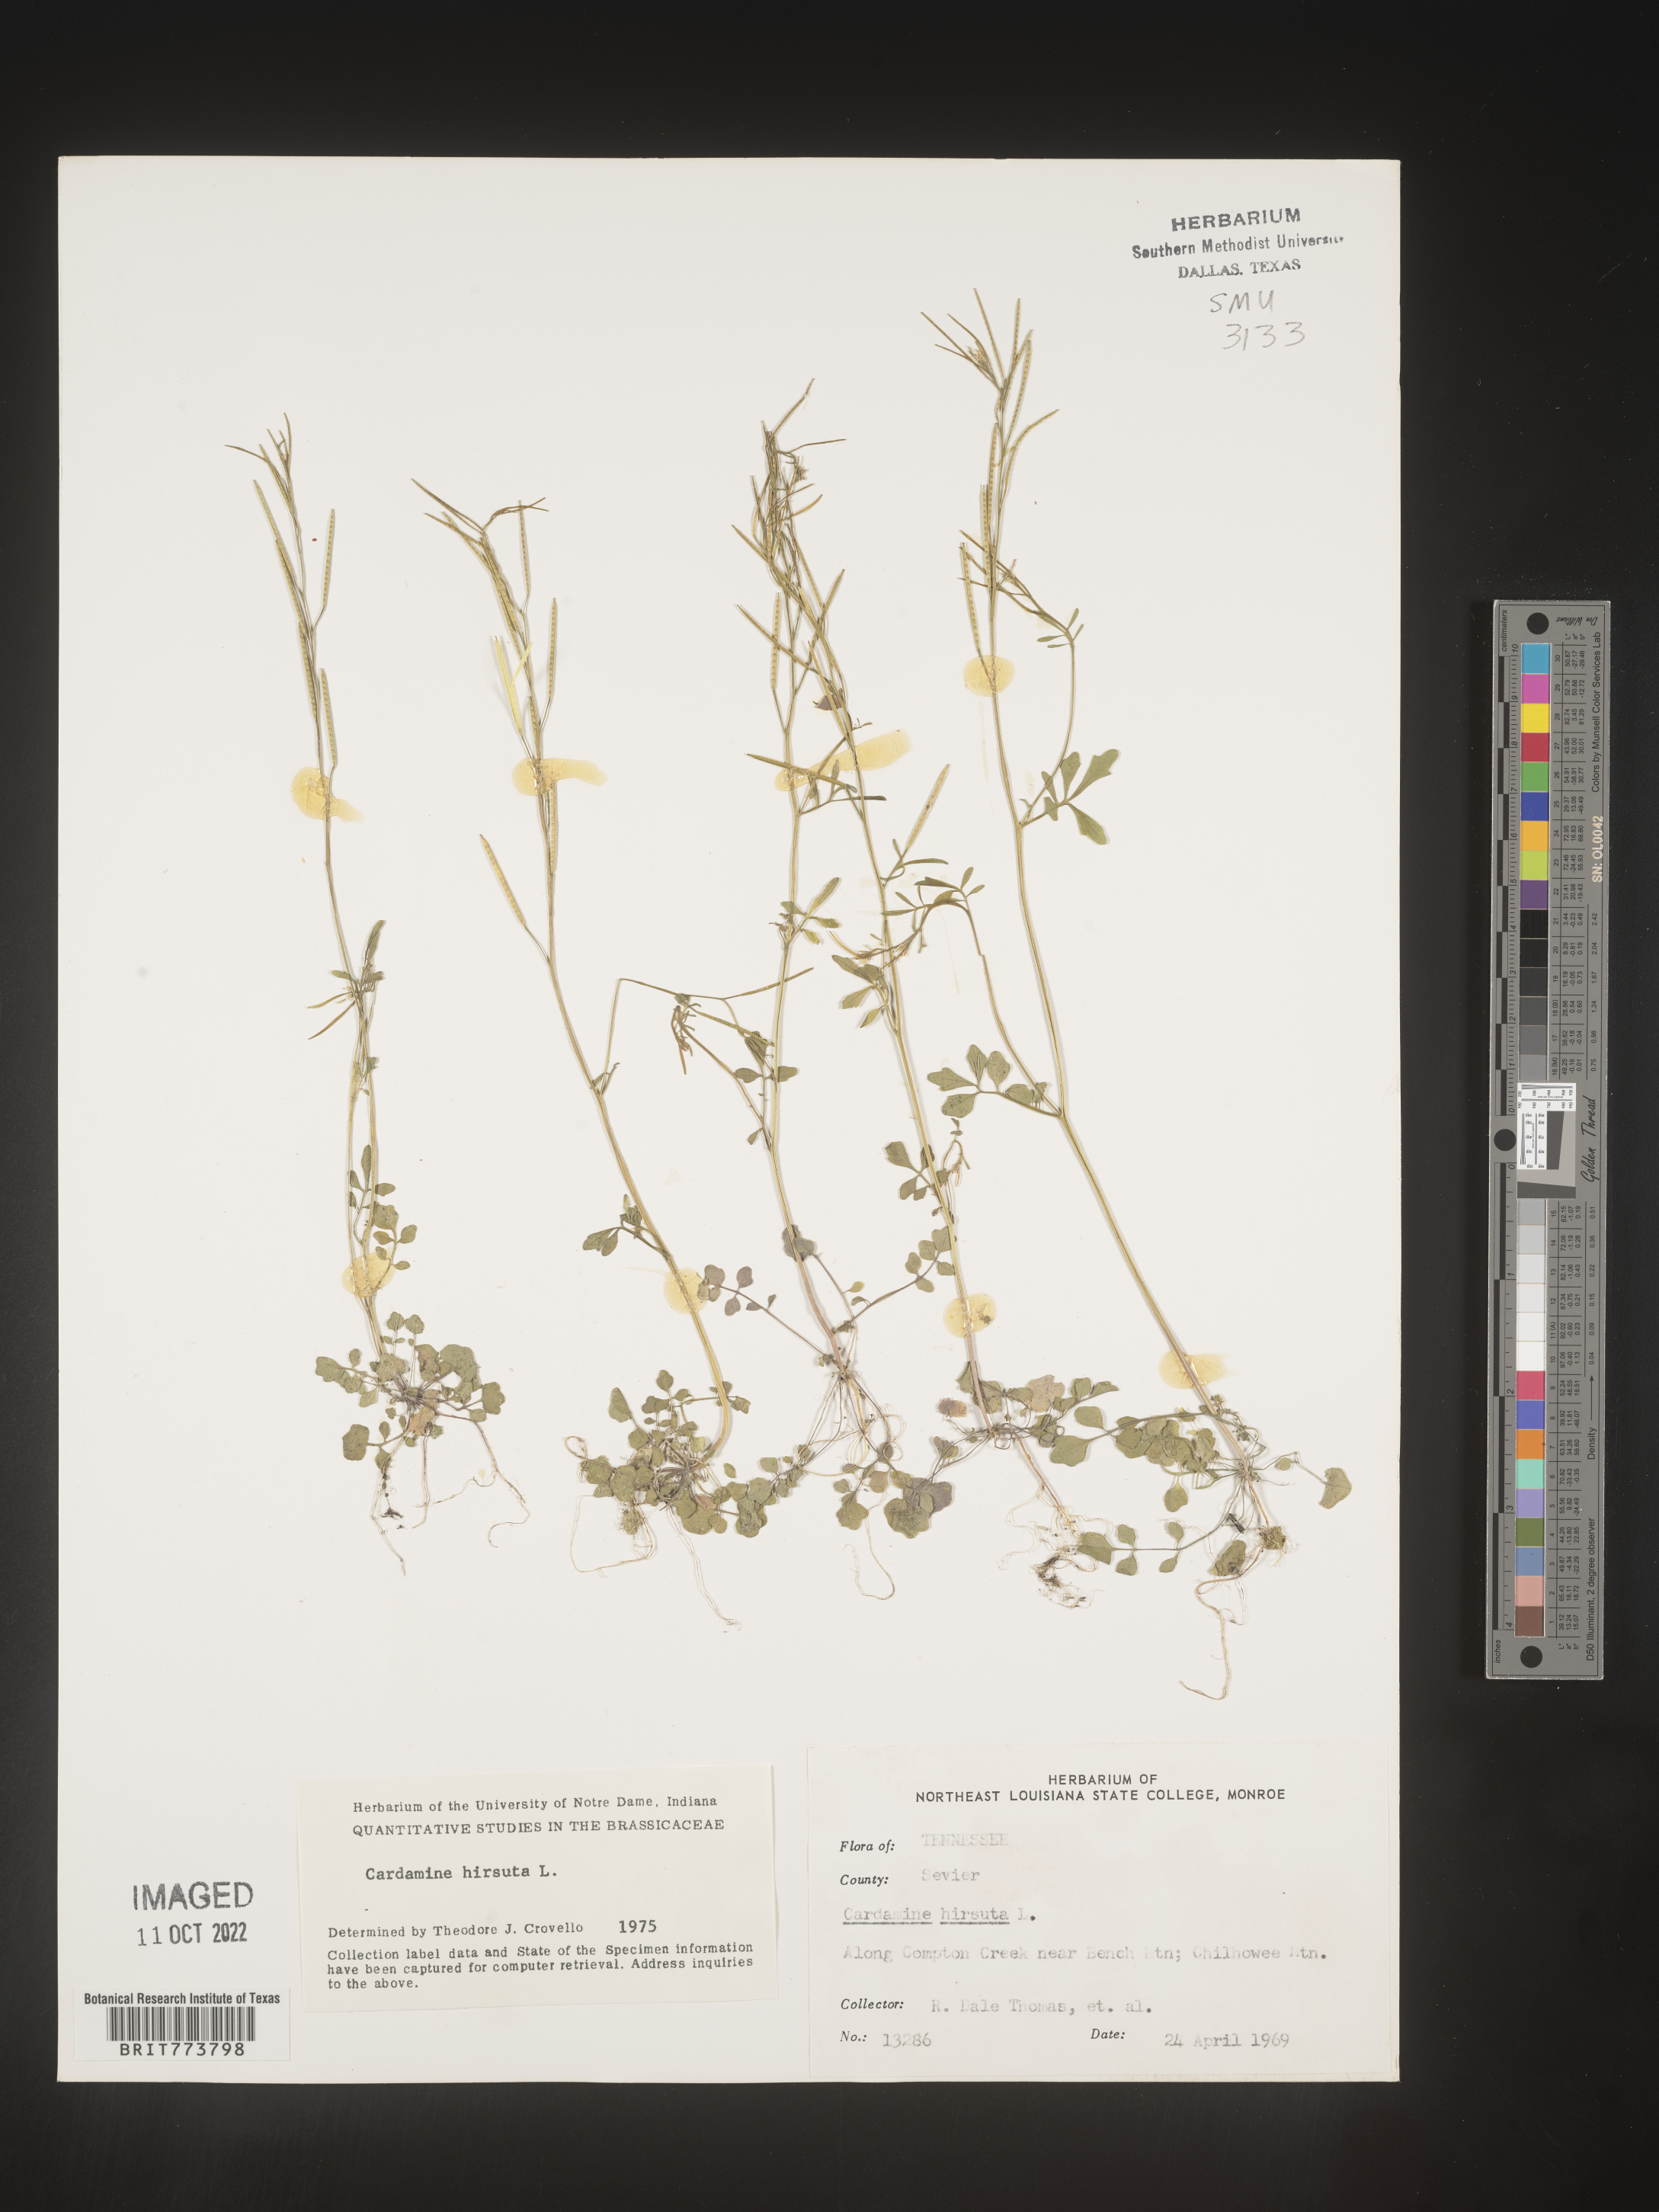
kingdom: Plantae
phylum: Tracheophyta
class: Magnoliopsida
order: Brassicales
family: Brassicaceae
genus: Cardamine
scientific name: Cardamine hirsuta
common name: Hairy bittercress
